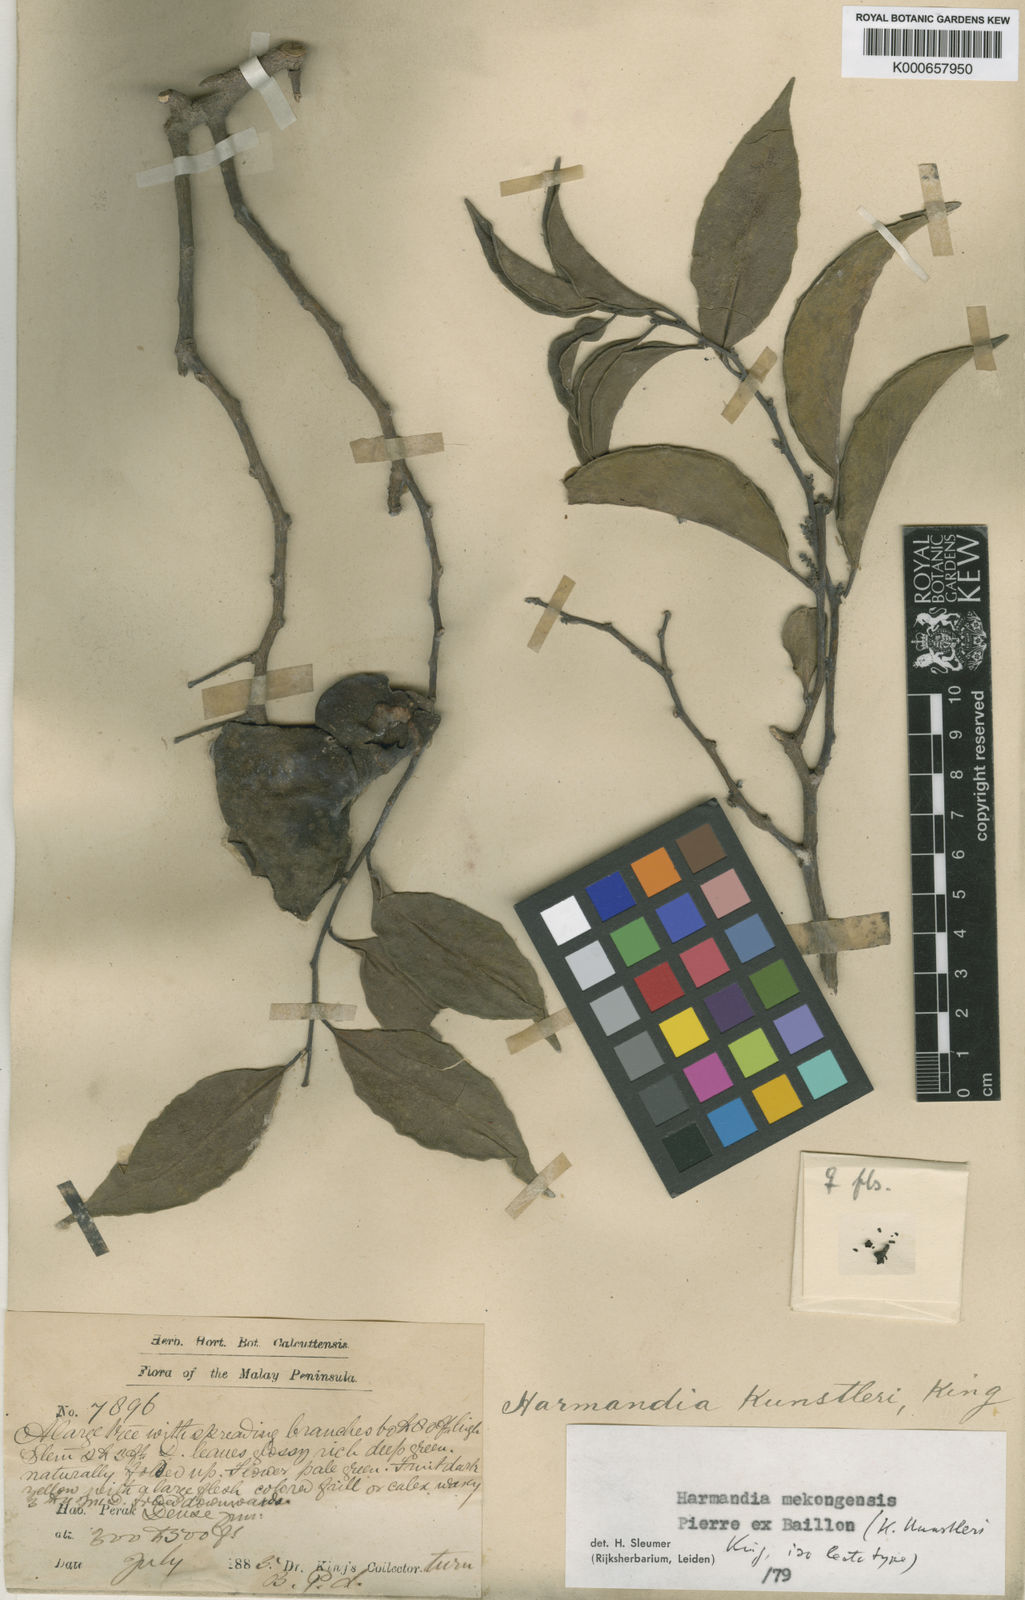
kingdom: Plantae
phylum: Tracheophyta
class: Magnoliopsida
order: Santalales
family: Aptandraceae
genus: Harmandia
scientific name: Harmandia mekongensis
